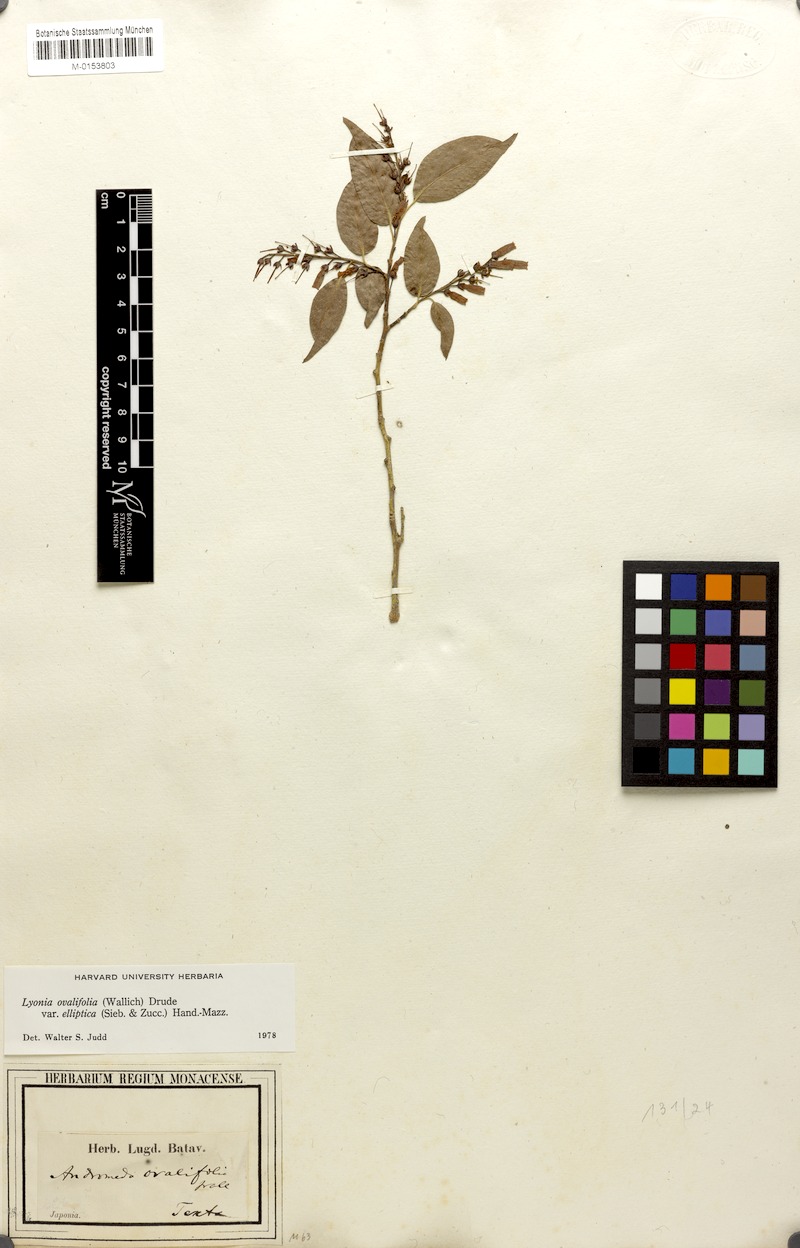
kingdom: Plantae
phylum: Tracheophyta
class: Magnoliopsida
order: Ericales
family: Ericaceae
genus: Lyonia
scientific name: Lyonia ovalifolia
